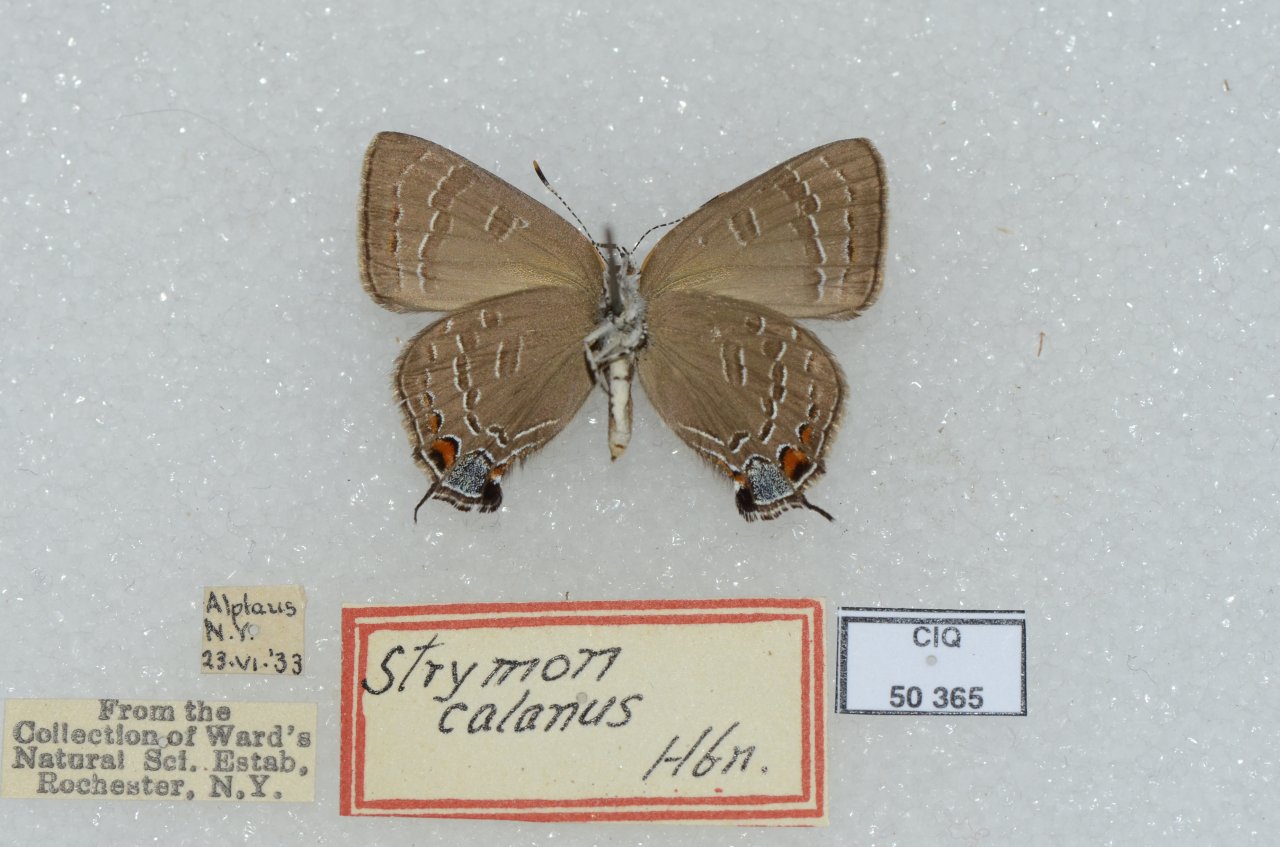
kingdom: Animalia
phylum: Arthropoda
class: Insecta
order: Lepidoptera
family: Lycaenidae
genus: Satyrium
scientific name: Satyrium calanus
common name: Banded Hairstreak
